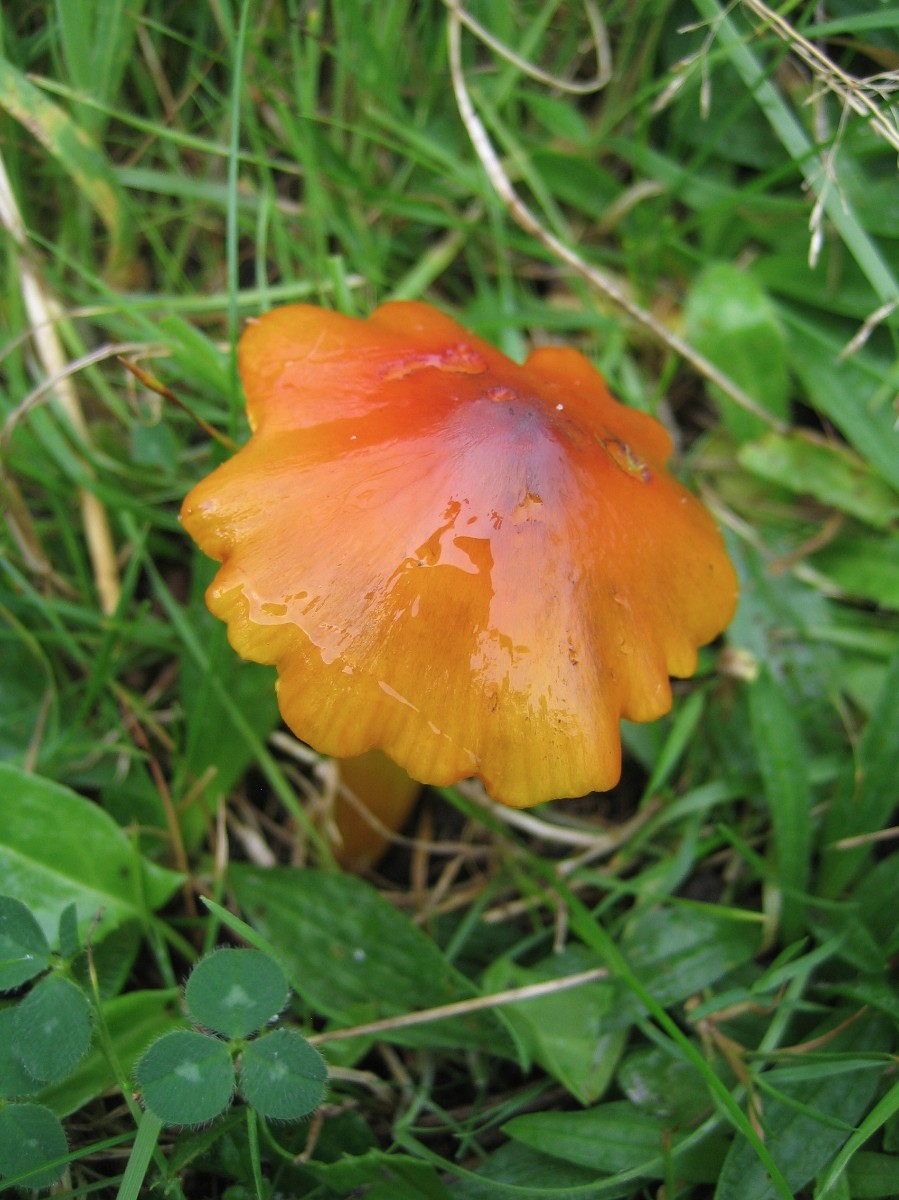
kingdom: Fungi
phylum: Basidiomycota
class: Agaricomycetes
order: Agaricales
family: Hygrophoraceae
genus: Hygrocybe
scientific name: Hygrocybe conica
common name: kegle-vokshat
